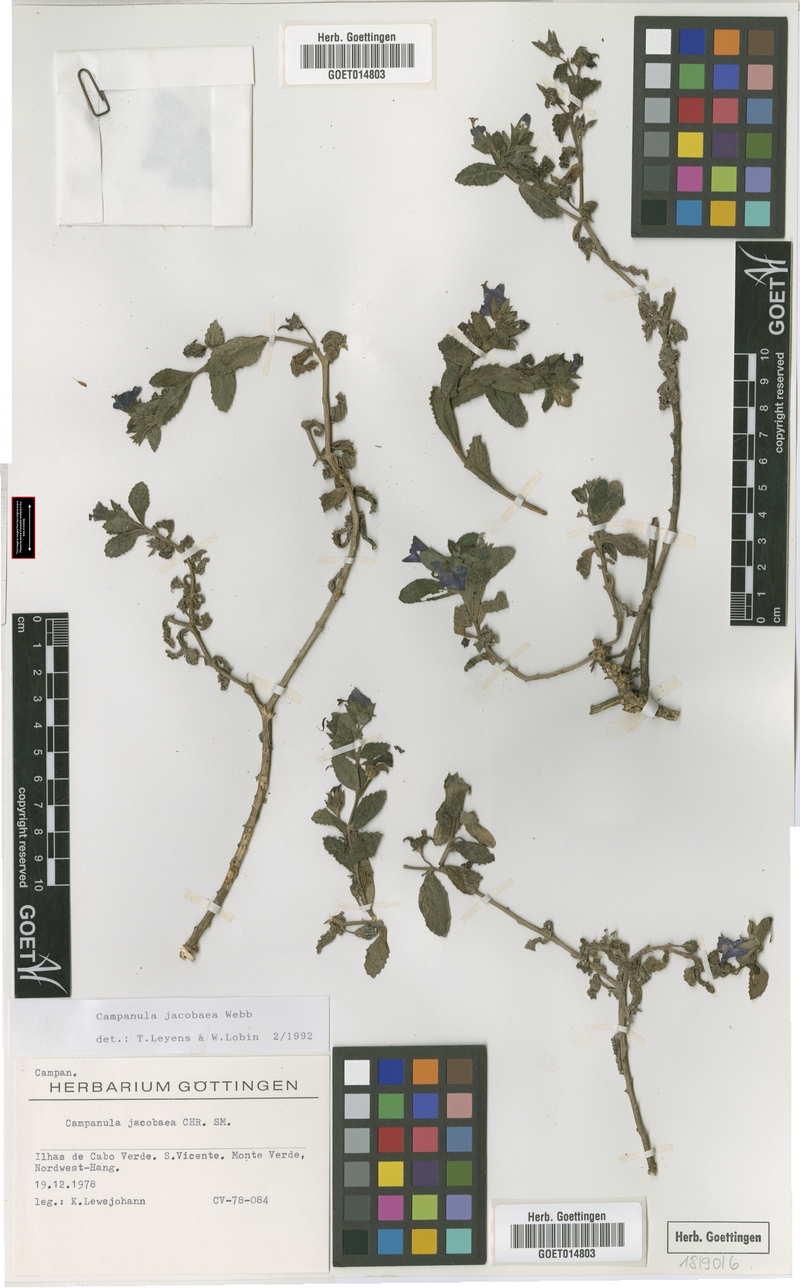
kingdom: Plantae
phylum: Tracheophyta
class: Magnoliopsida
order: Asterales
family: Campanulaceae
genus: Campanula
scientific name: Campanula jacobaea
